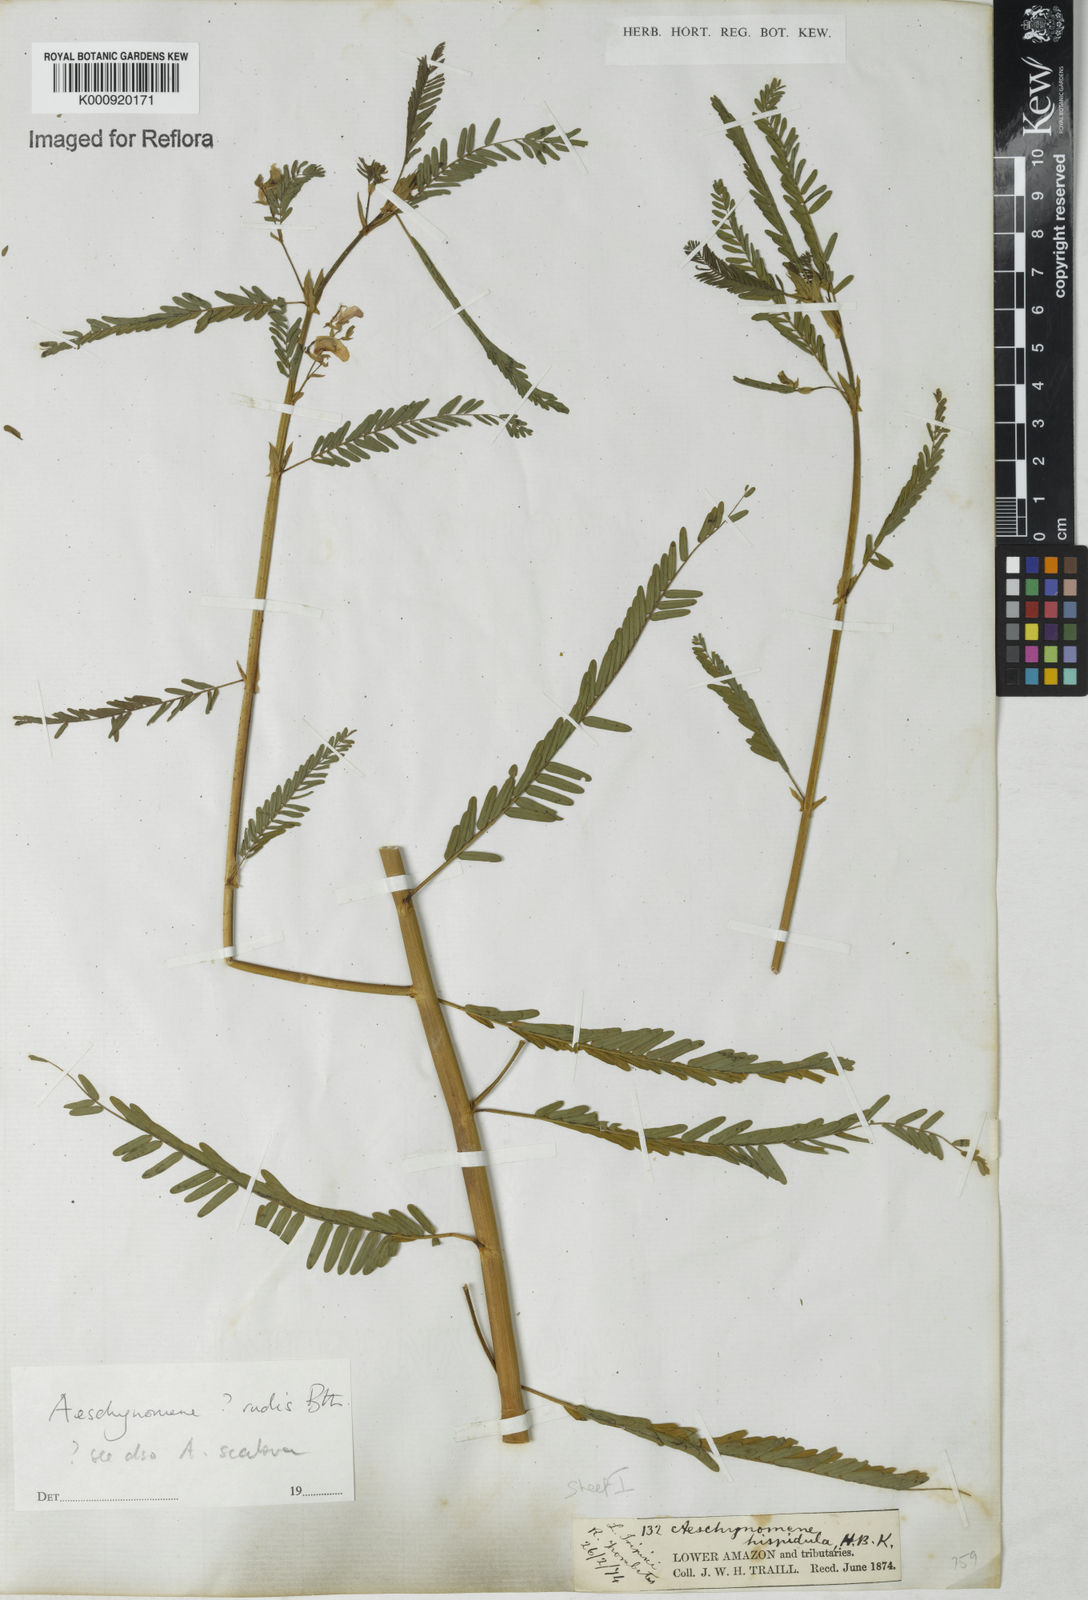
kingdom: Plantae
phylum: Tracheophyta
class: Magnoliopsida
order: Fabales
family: Fabaceae
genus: Aeschynomene
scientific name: Aeschynomene rudis
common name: Rough joint-vetch
